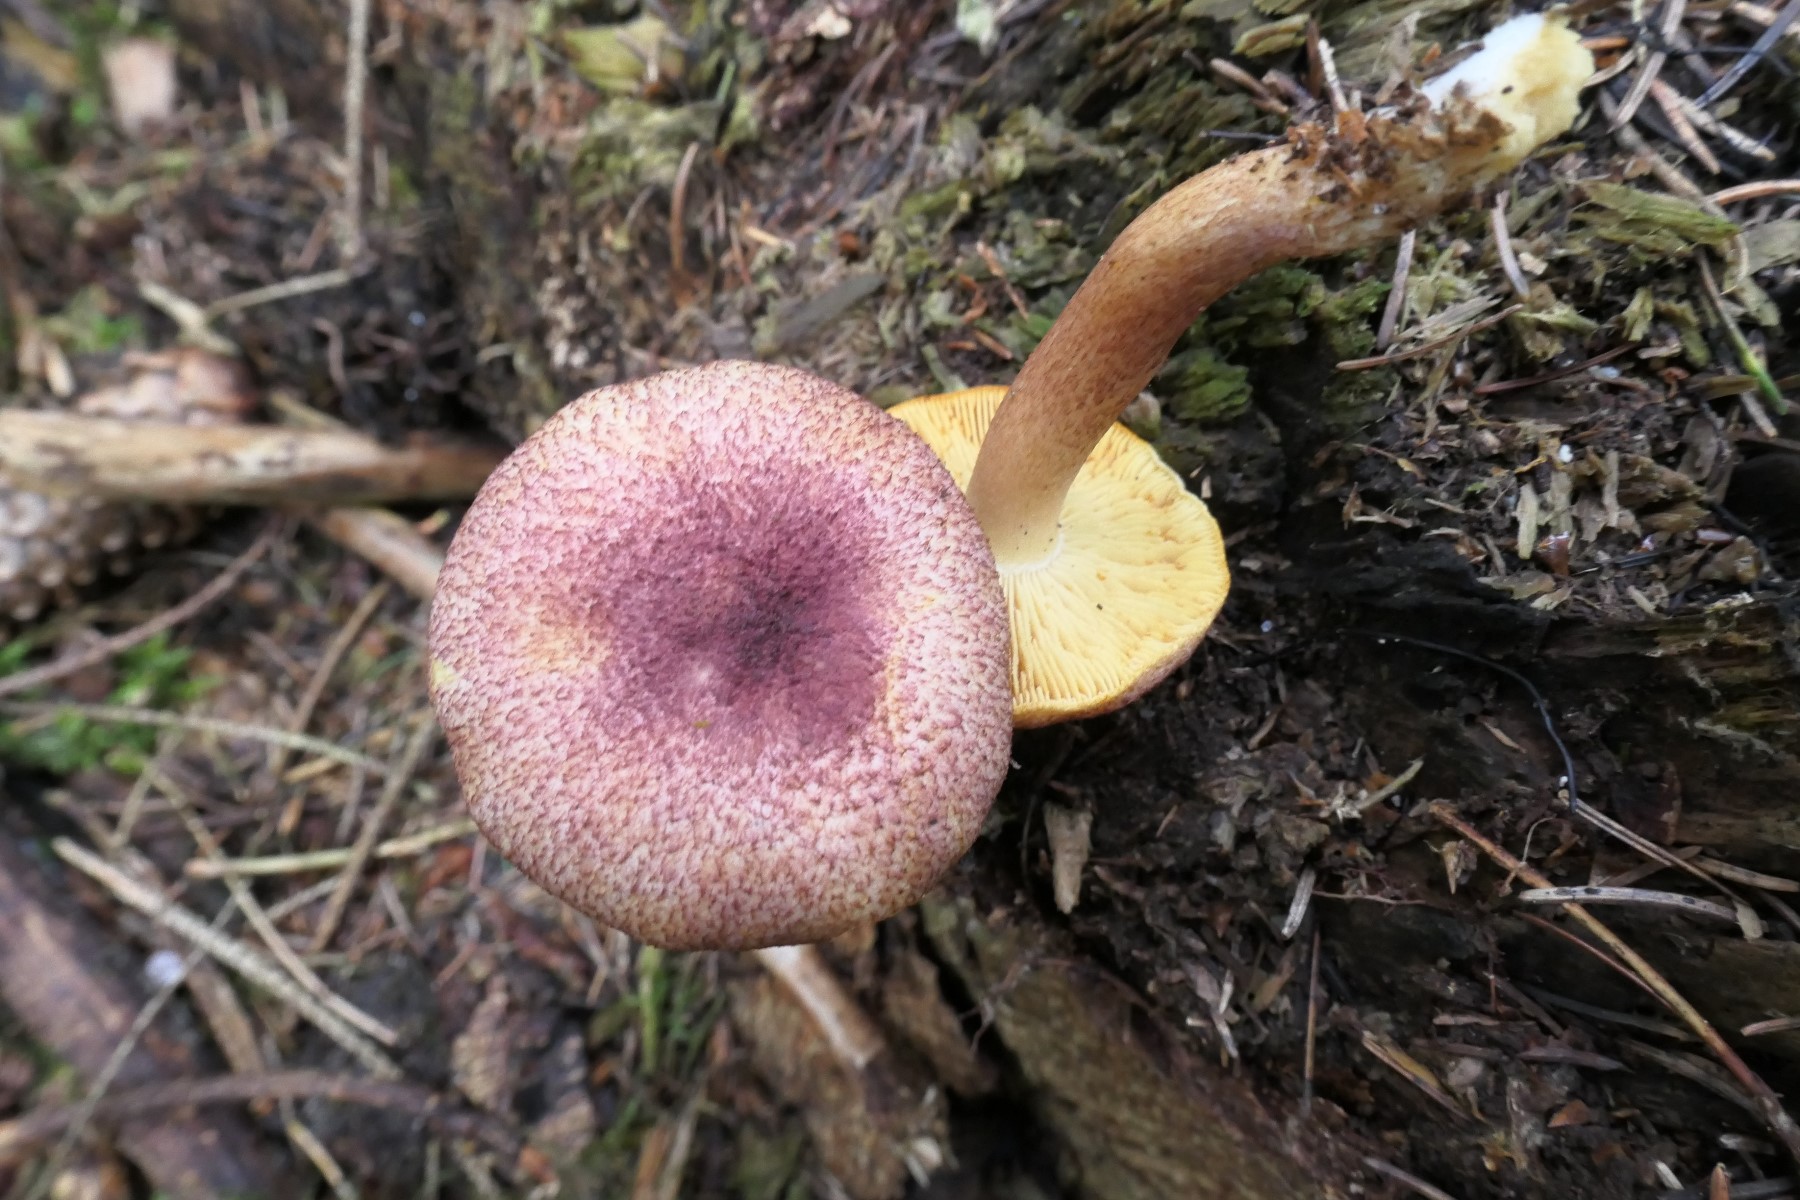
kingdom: Fungi
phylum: Basidiomycota
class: Agaricomycetes
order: Agaricales
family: Tricholomataceae
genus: Tricholomopsis
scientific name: Tricholomopsis rutilans
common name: purpur-væbnerhat
